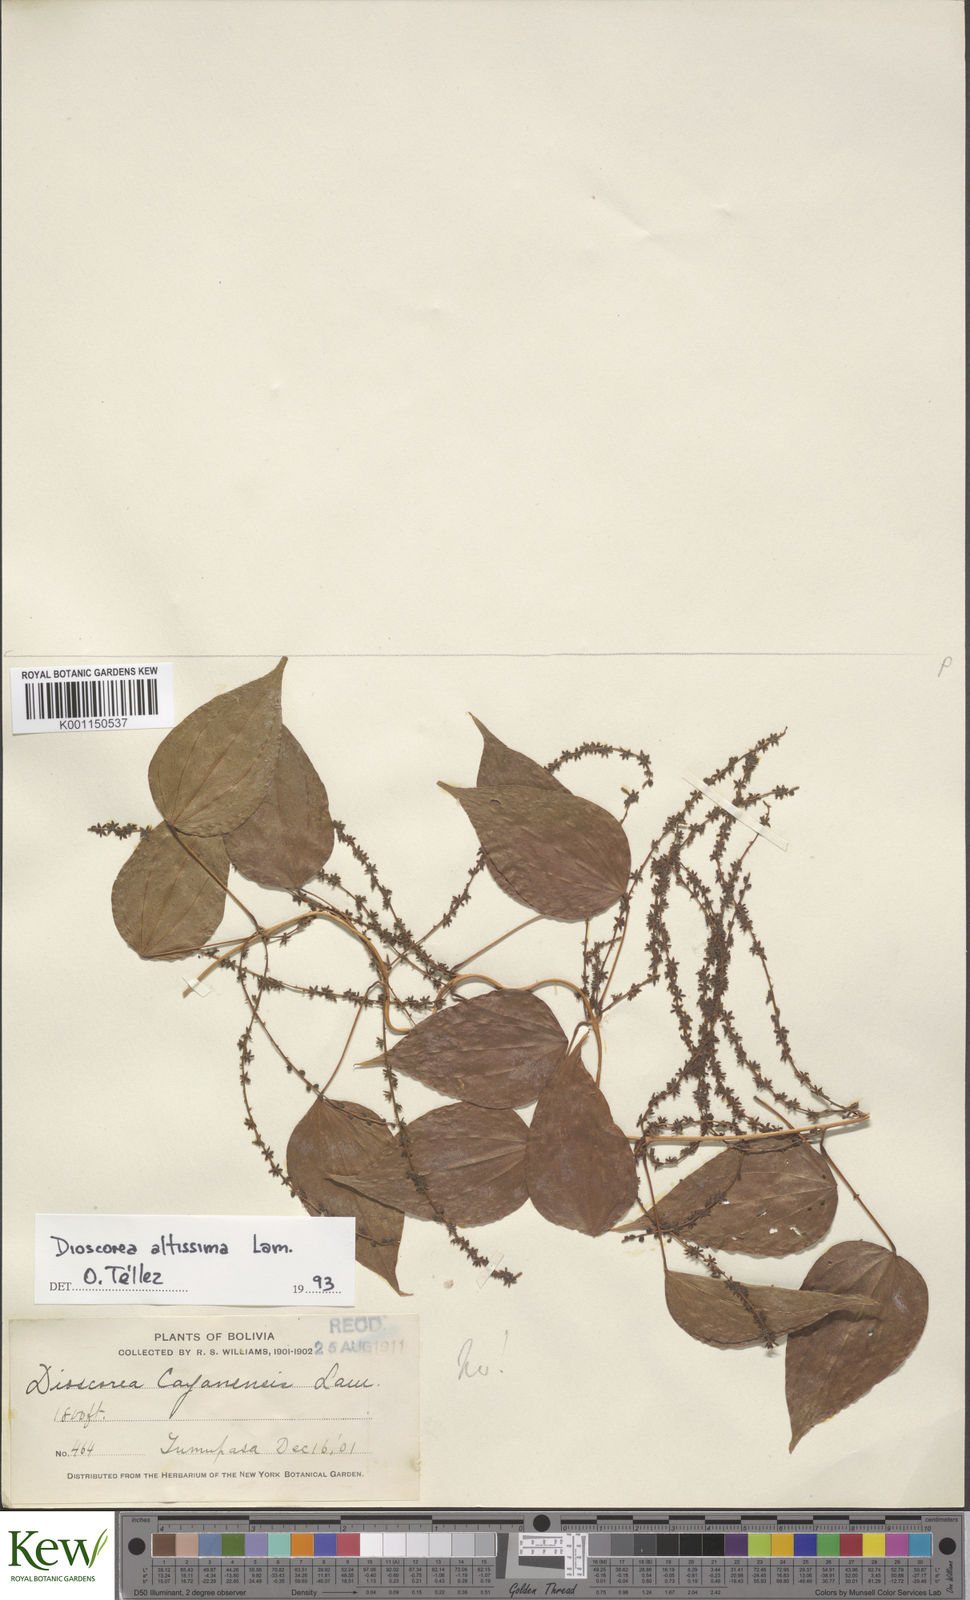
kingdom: Plantae
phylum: Tracheophyta
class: Liliopsida
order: Dioscoreales
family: Dioscoreaceae
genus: Dioscorea
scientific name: Dioscorea cayenensis
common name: Attoto yam
